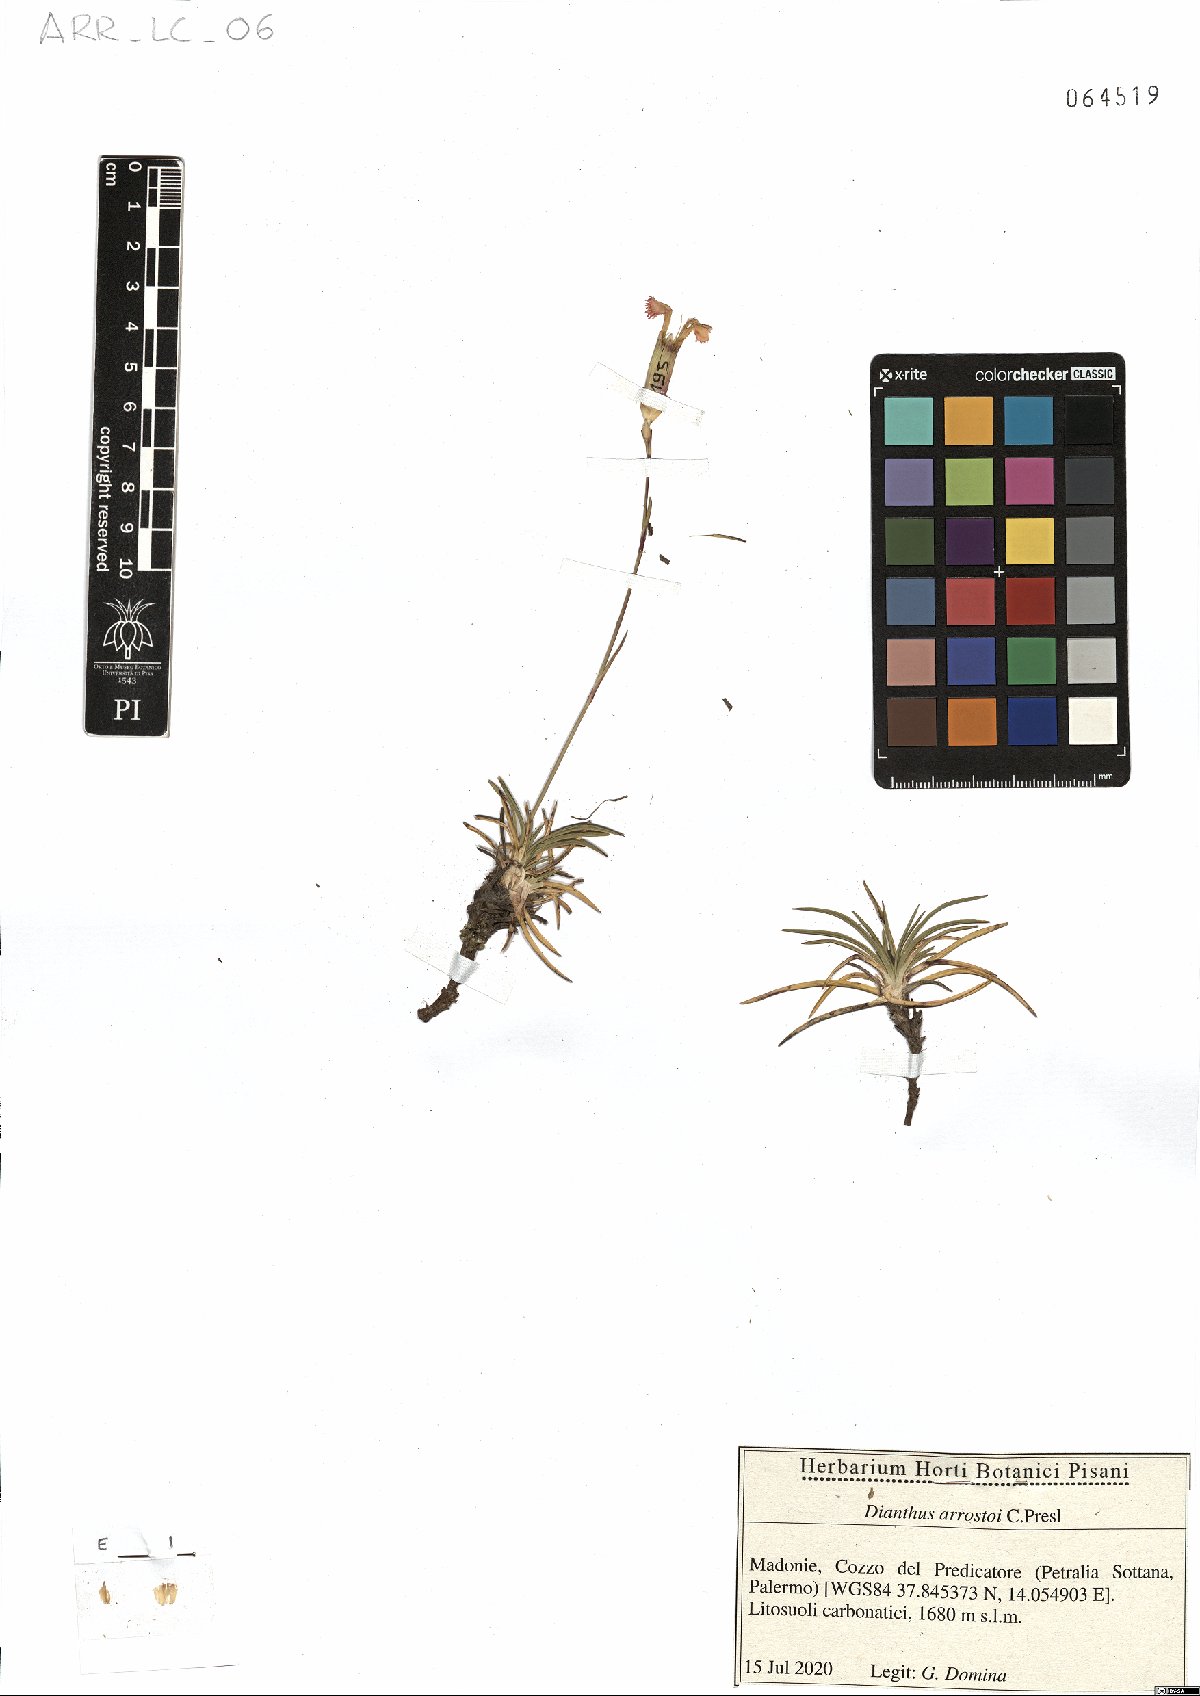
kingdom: Plantae
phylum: Tracheophyta
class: Magnoliopsida
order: Caryophyllales
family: Caryophyllaceae
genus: Dianthus
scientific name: Dianthus arrostoi
